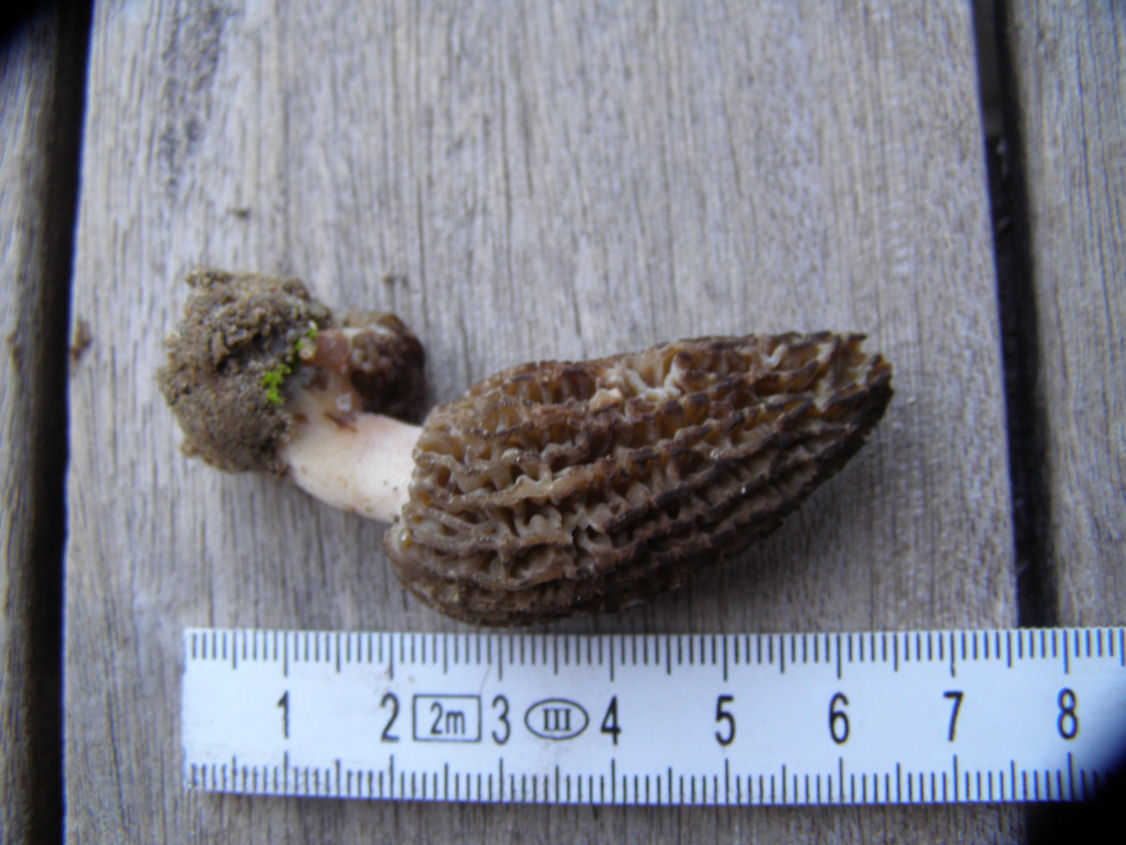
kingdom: Fungi
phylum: Ascomycota
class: Pezizomycetes
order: Pezizales
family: Morchellaceae
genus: Morchella
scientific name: Morchella importuna
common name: Landscaping black morel
